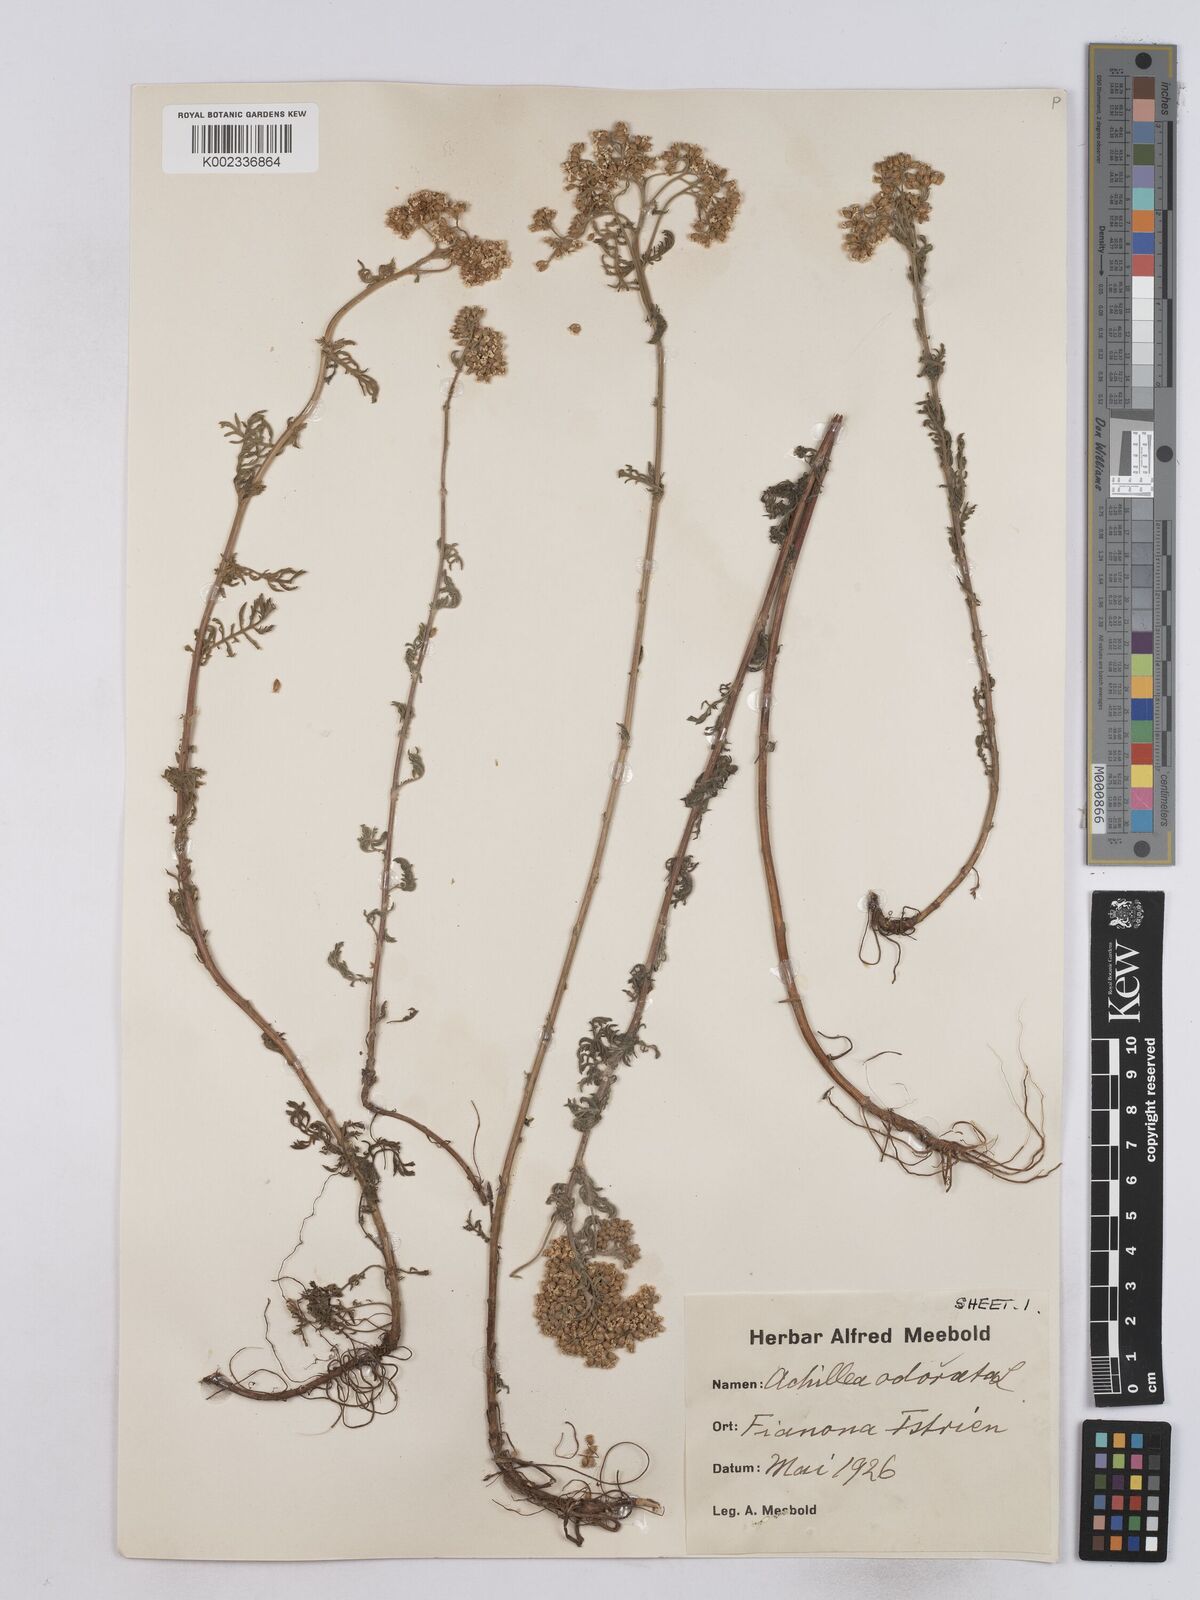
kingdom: Plantae
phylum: Tracheophyta
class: Magnoliopsida
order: Asterales
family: Asteraceae
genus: Achillea
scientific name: Achillea odorata
